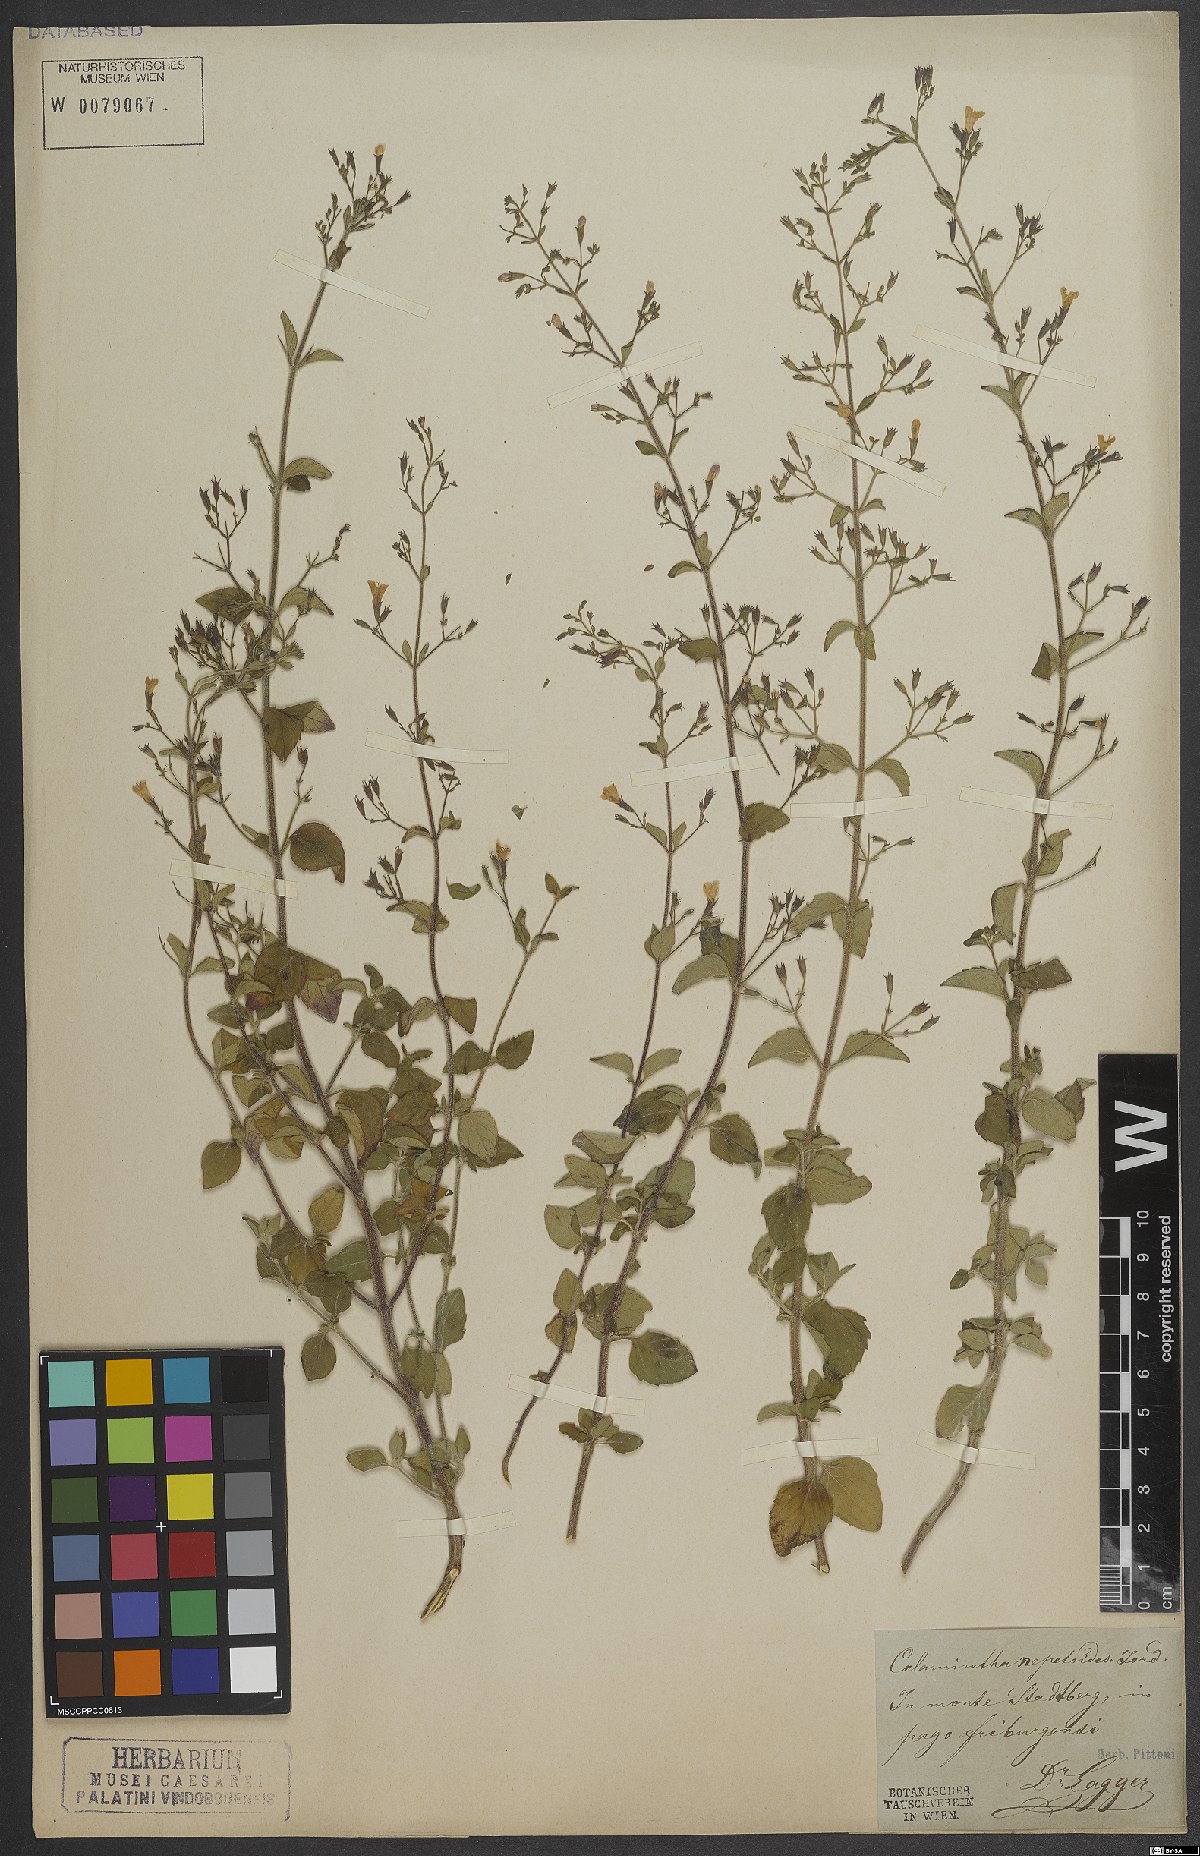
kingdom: Plantae
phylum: Tracheophyta
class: Magnoliopsida
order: Lamiales
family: Lamiaceae
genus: Clinopodium
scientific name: Clinopodium nepeta
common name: Lesser calamint
